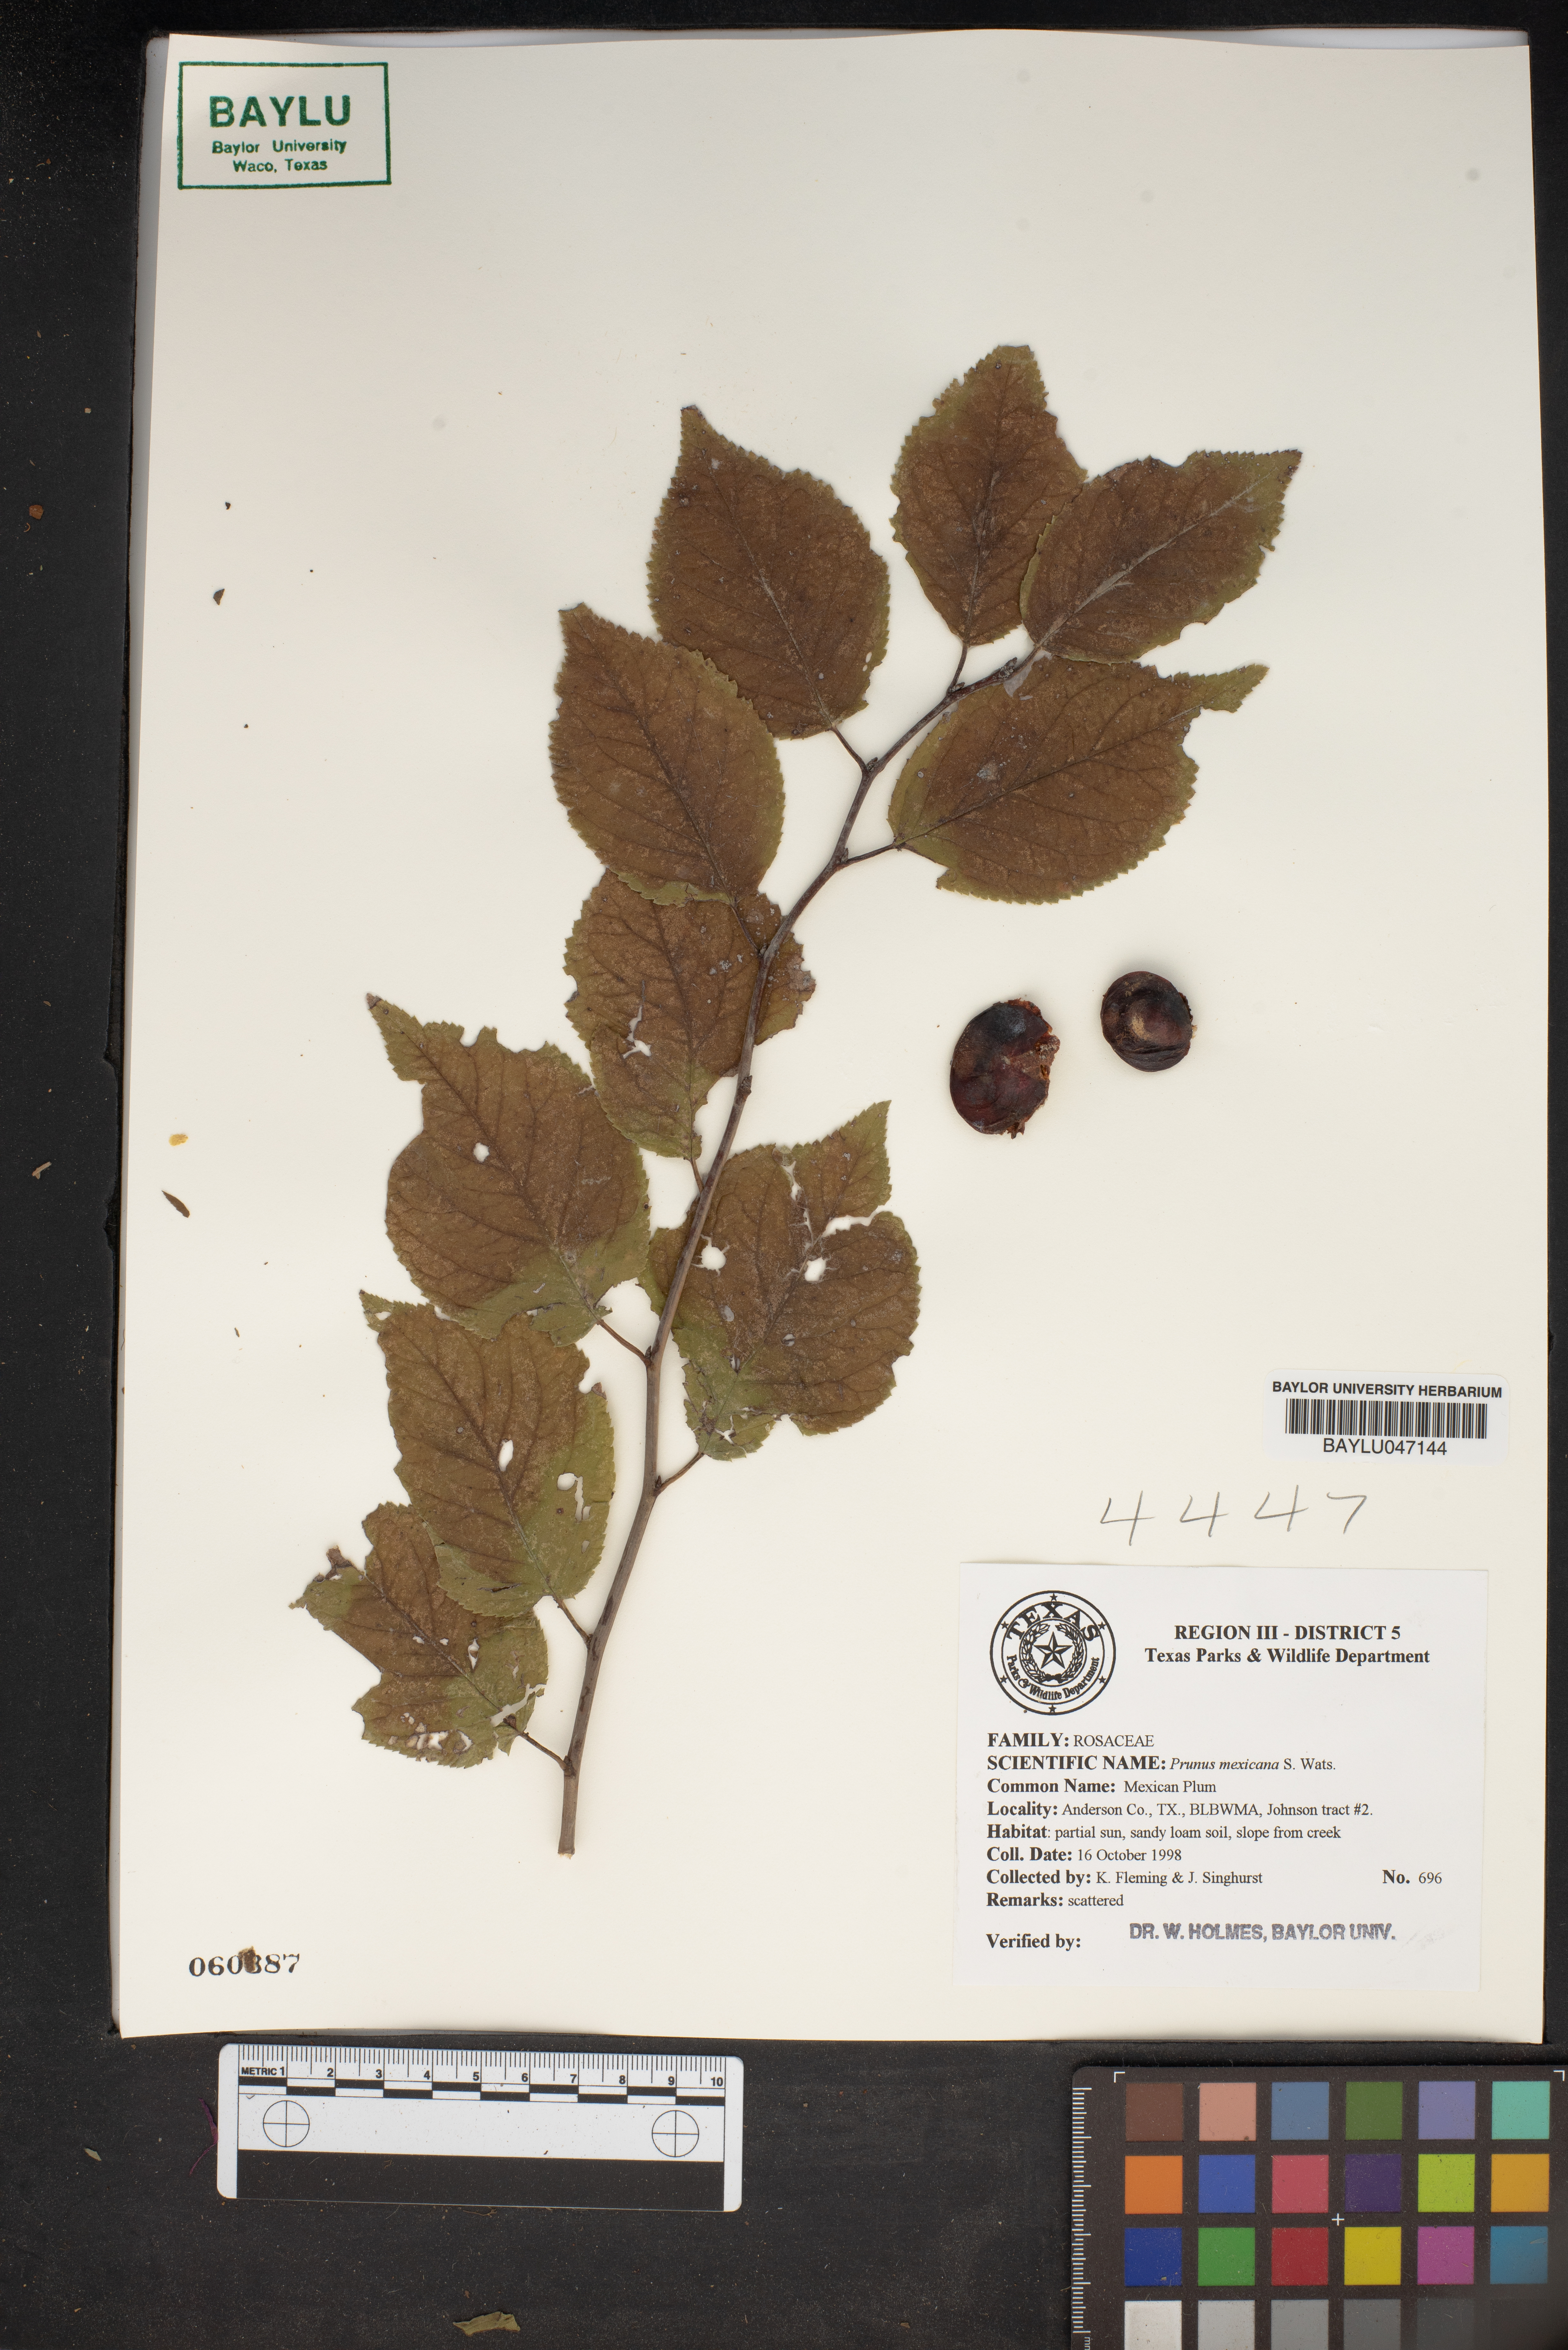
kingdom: Plantae
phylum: Tracheophyta
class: Magnoliopsida
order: Rosales
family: Rosaceae
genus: Prunus
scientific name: Prunus mexicana
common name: Mexican plum
